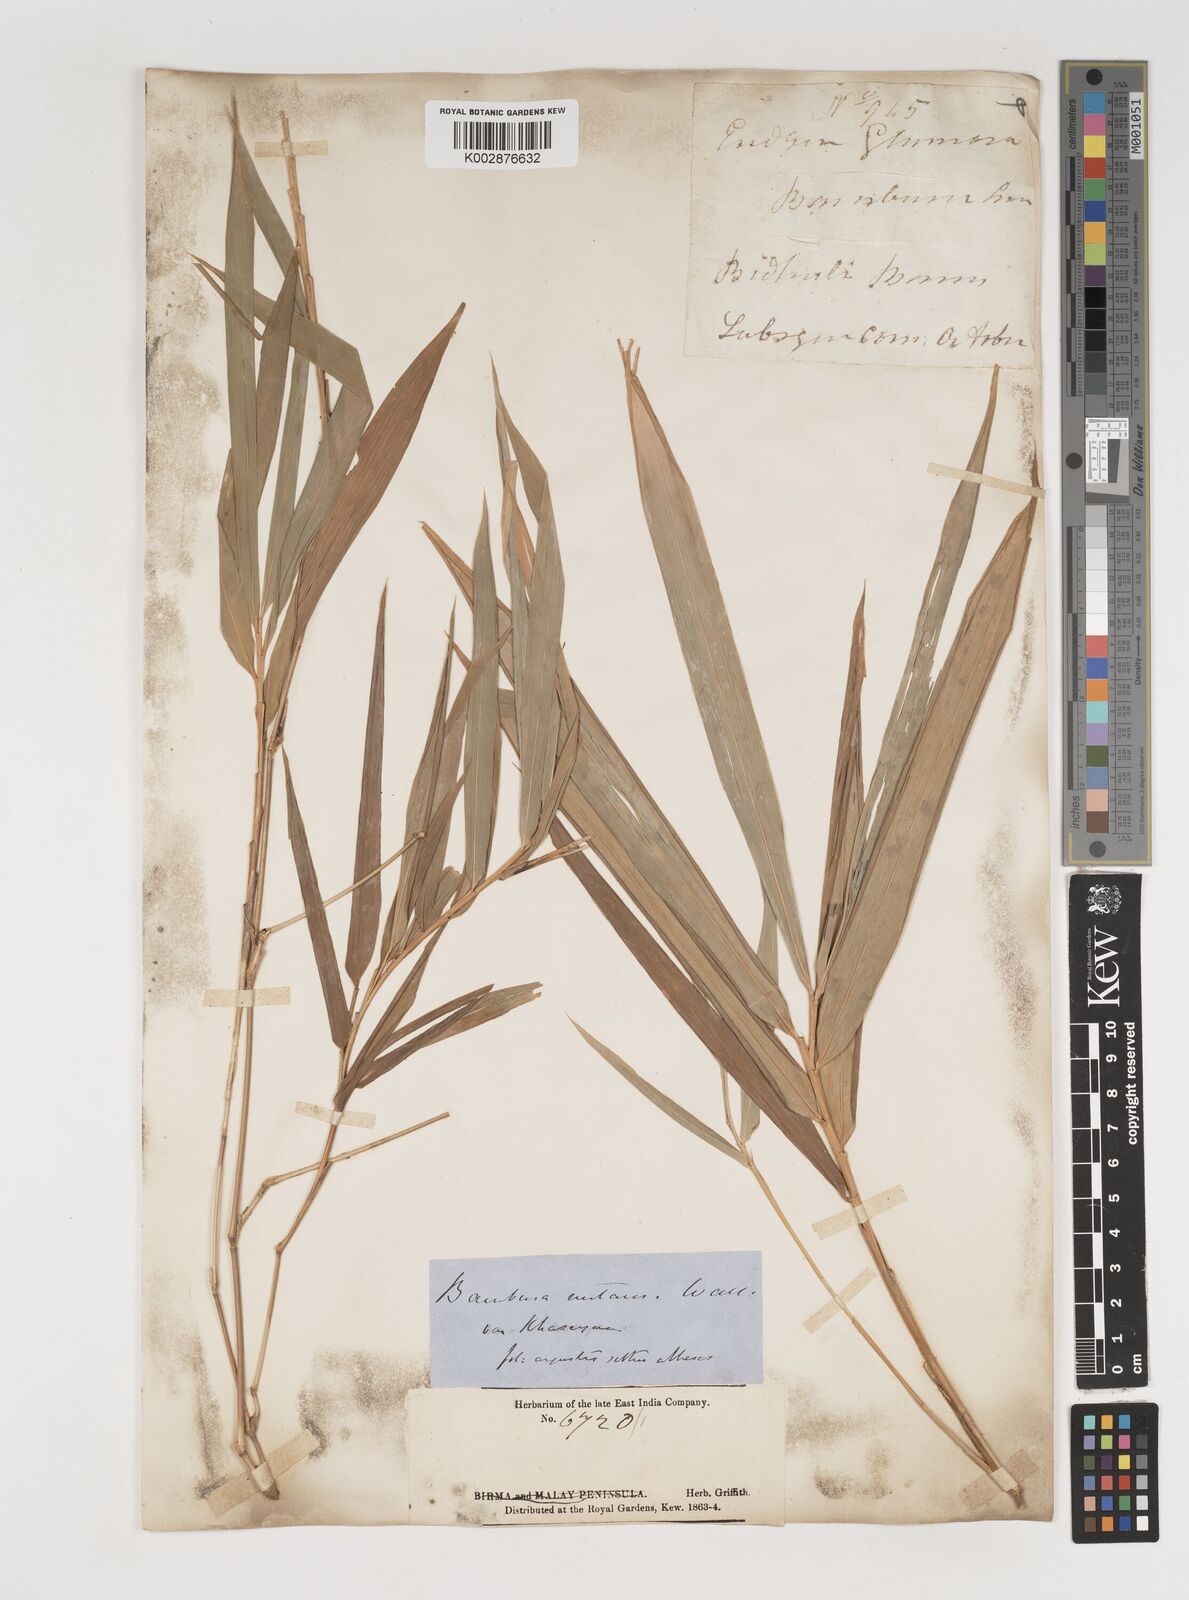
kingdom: Plantae
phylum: Tracheophyta
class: Liliopsida
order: Poales
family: Poaceae
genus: Bambusa
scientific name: Bambusa nutans
